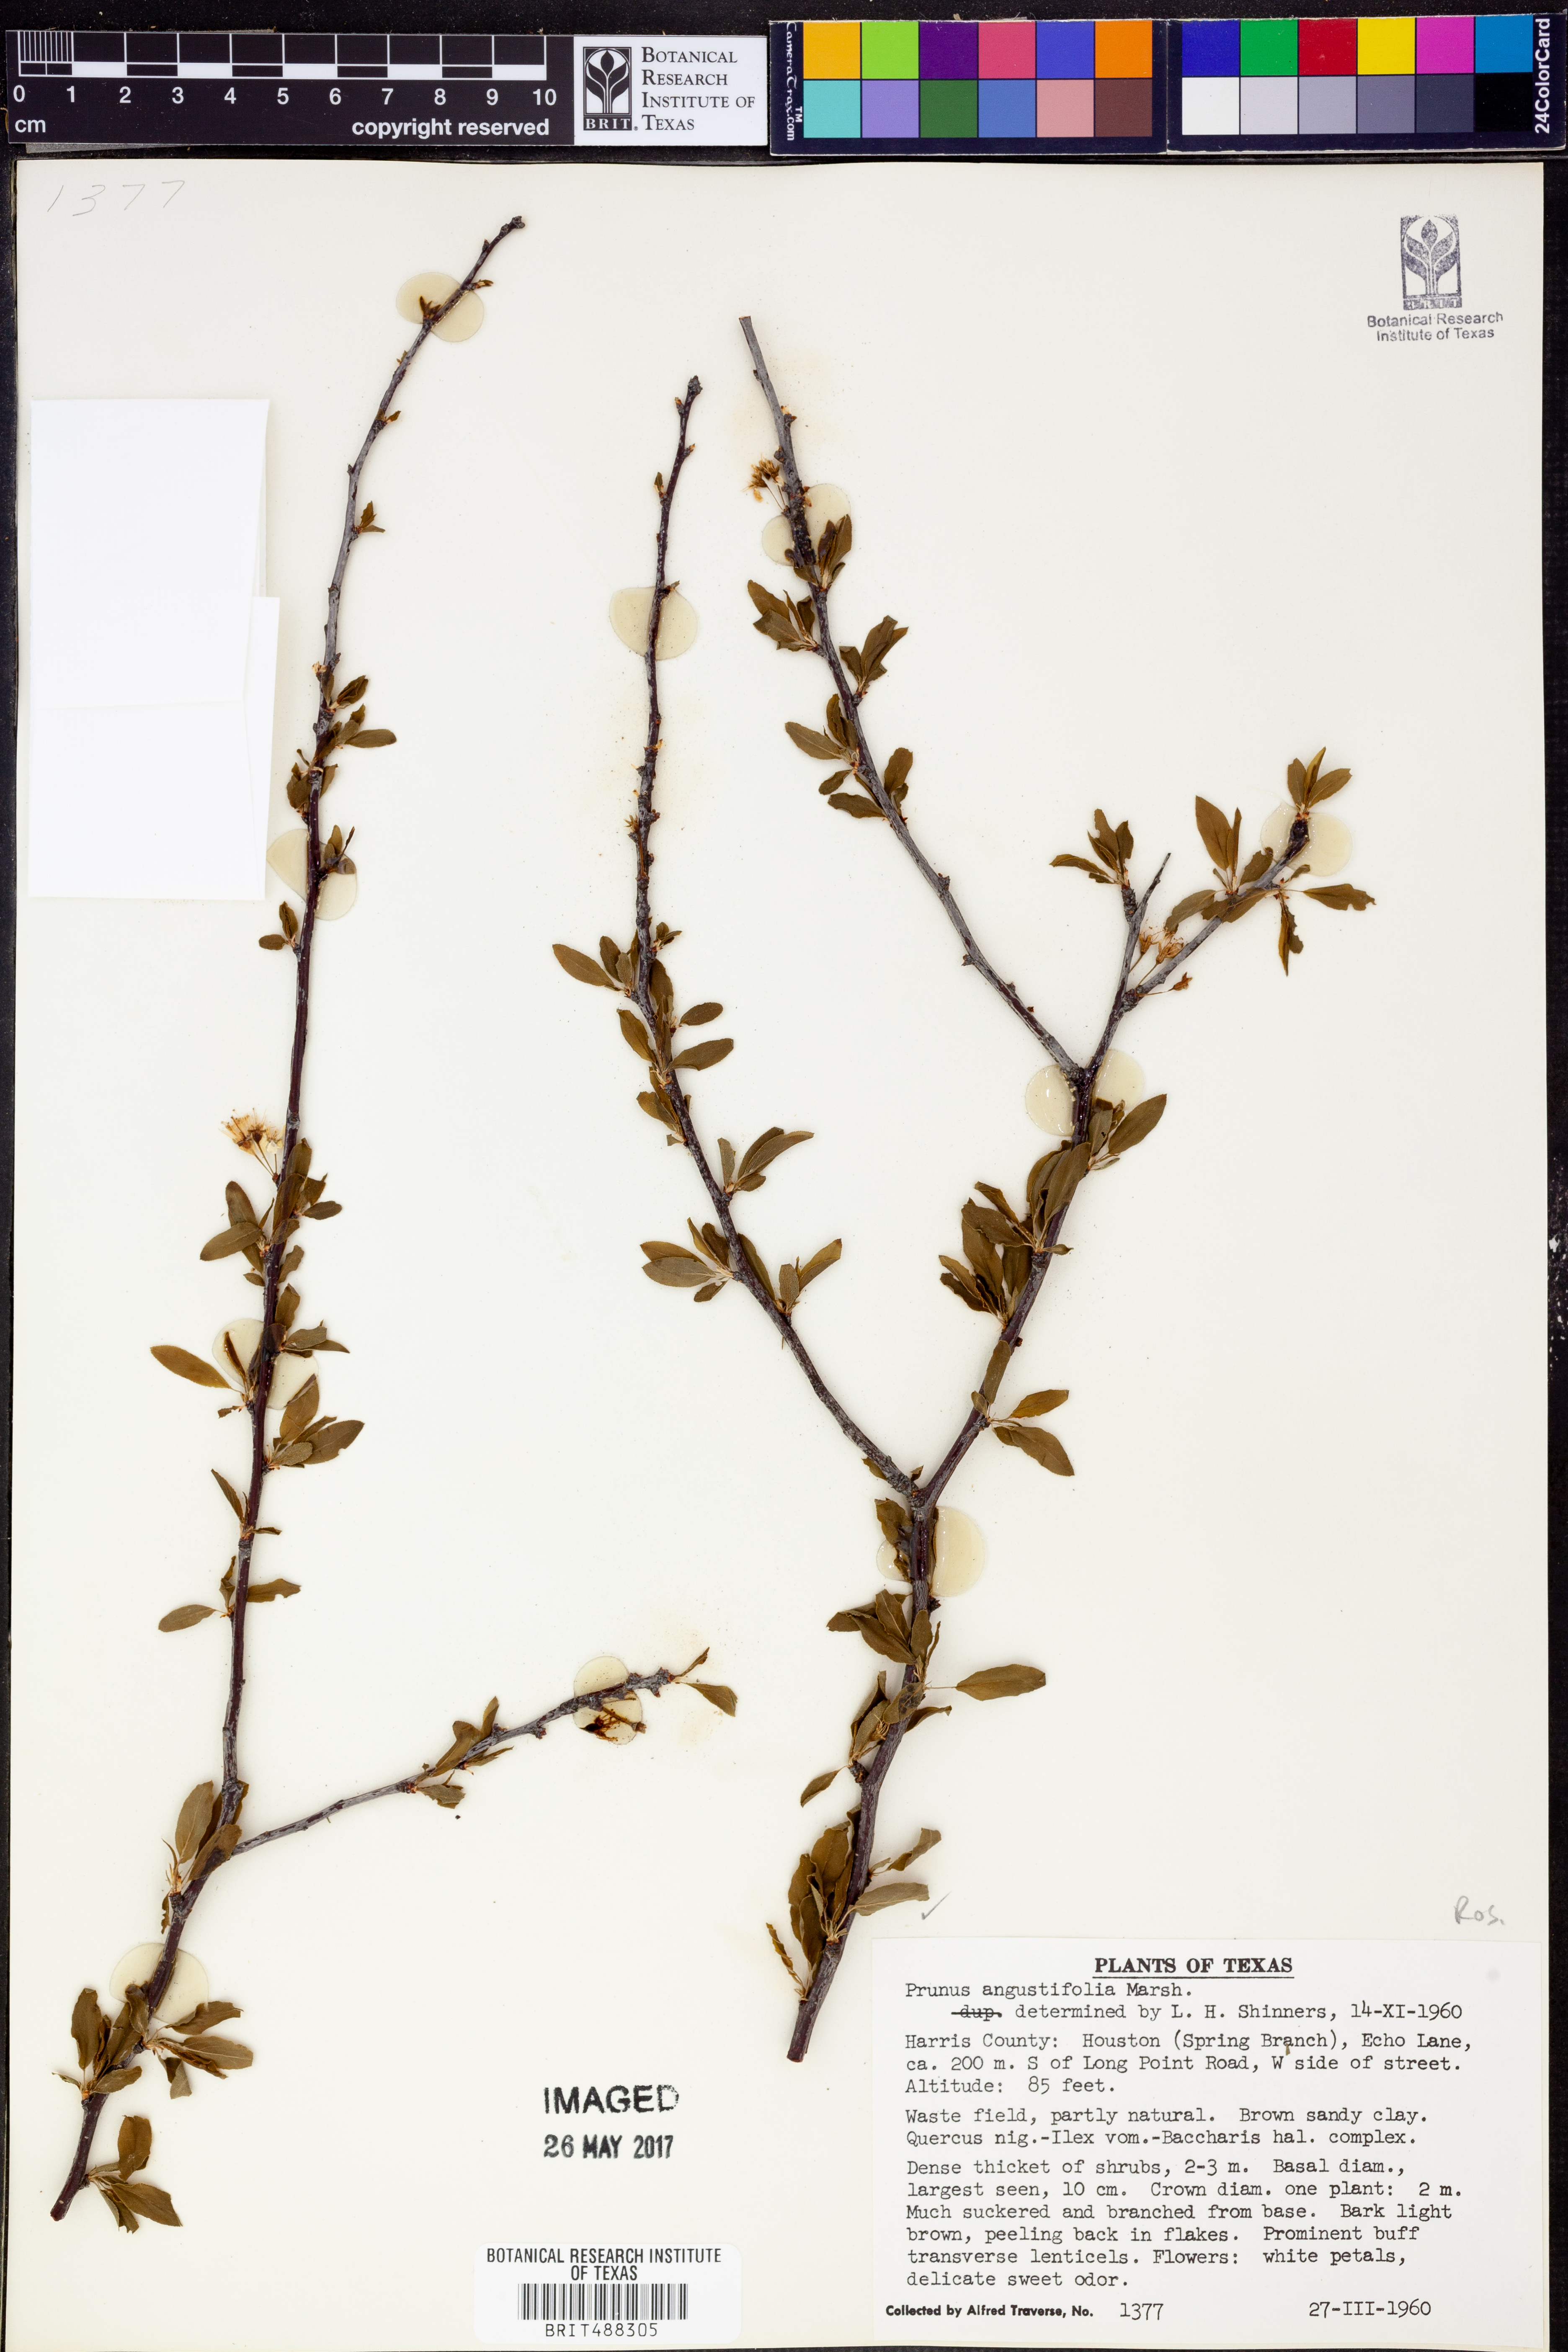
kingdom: Plantae
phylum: Tracheophyta
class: Magnoliopsida
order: Rosales
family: Rosaceae
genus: Prunus
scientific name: Prunus angustifolia
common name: Cherokee plum
